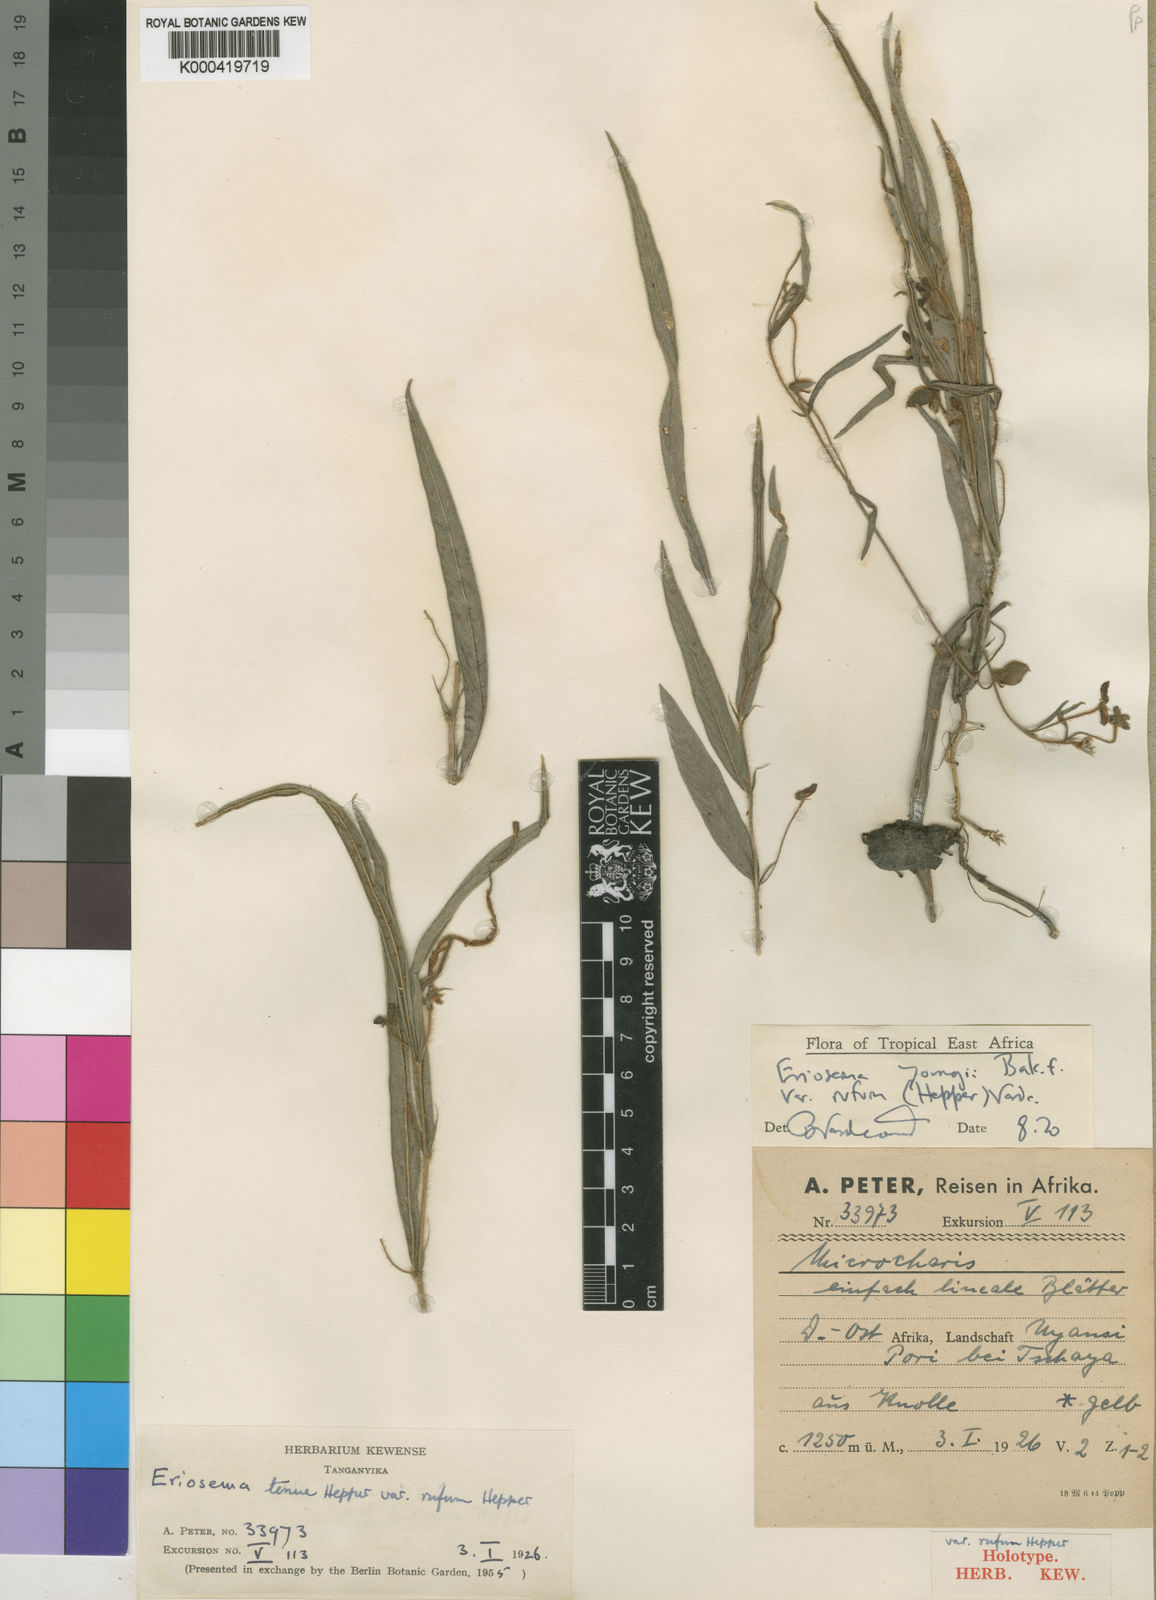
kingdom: Plantae
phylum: Tracheophyta
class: Magnoliopsida
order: Fabales
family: Fabaceae
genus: Eriosema
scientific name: Eriosema youngii
